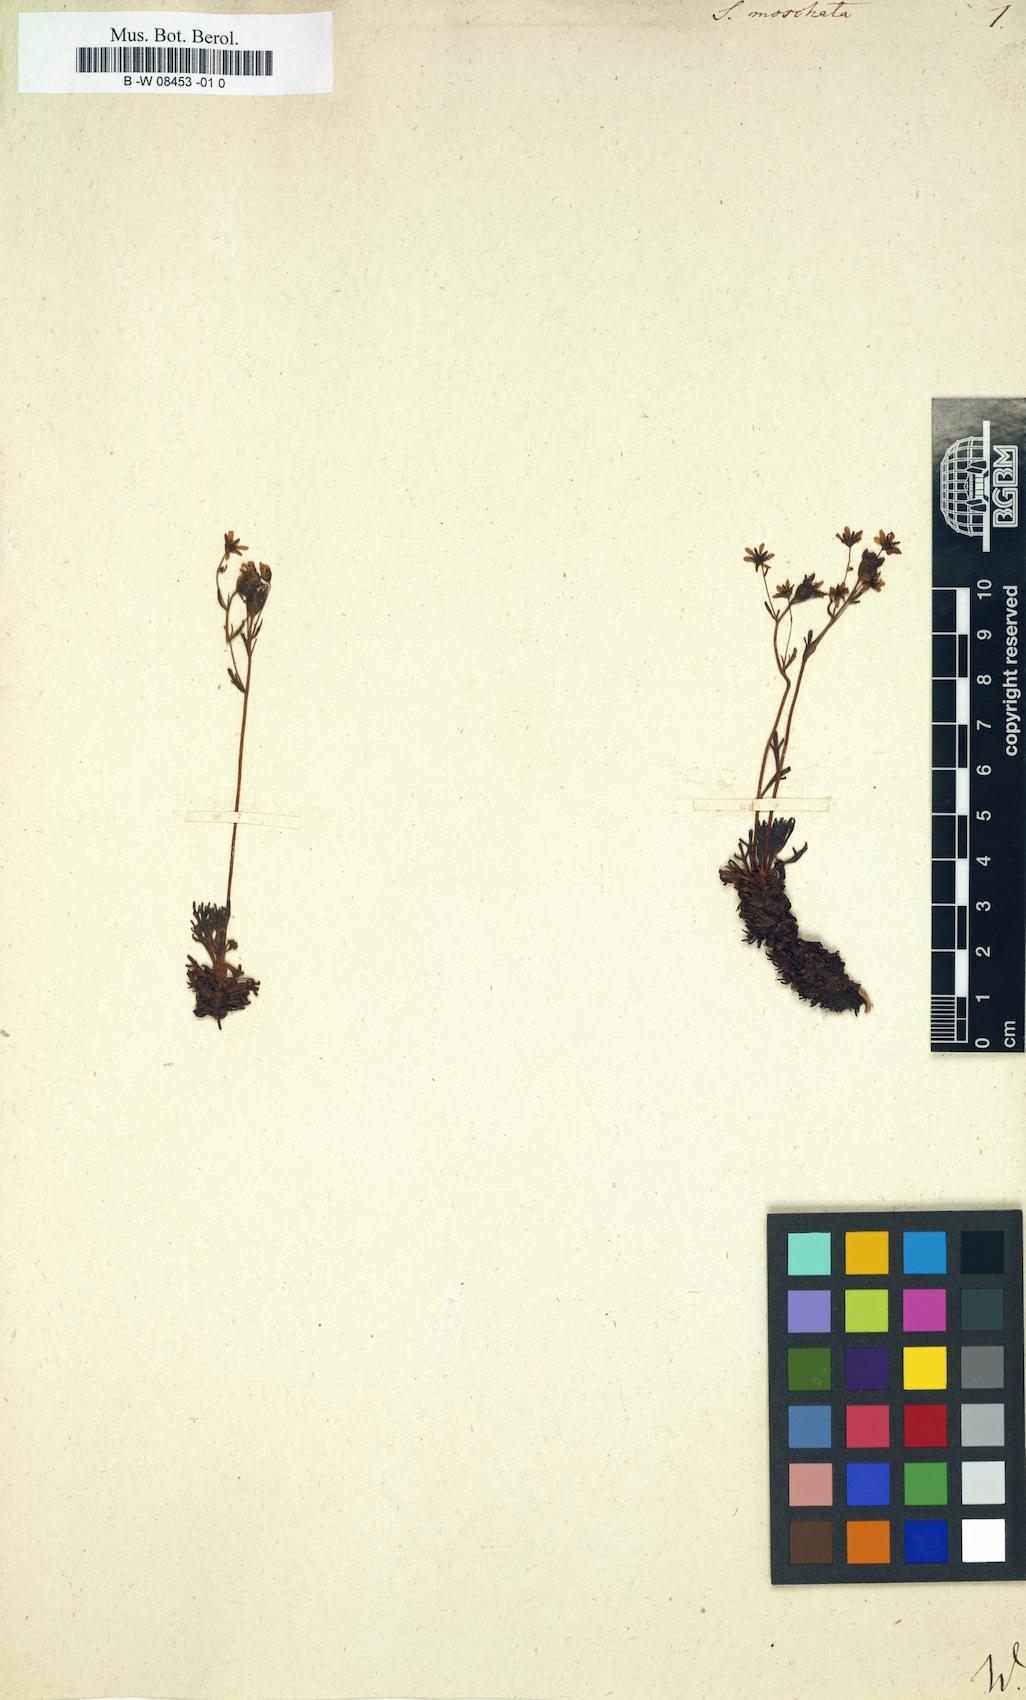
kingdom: Plantae
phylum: Tracheophyta
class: Magnoliopsida
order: Saxifragales
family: Saxifragaceae
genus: Saxifraga
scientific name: Saxifraga
